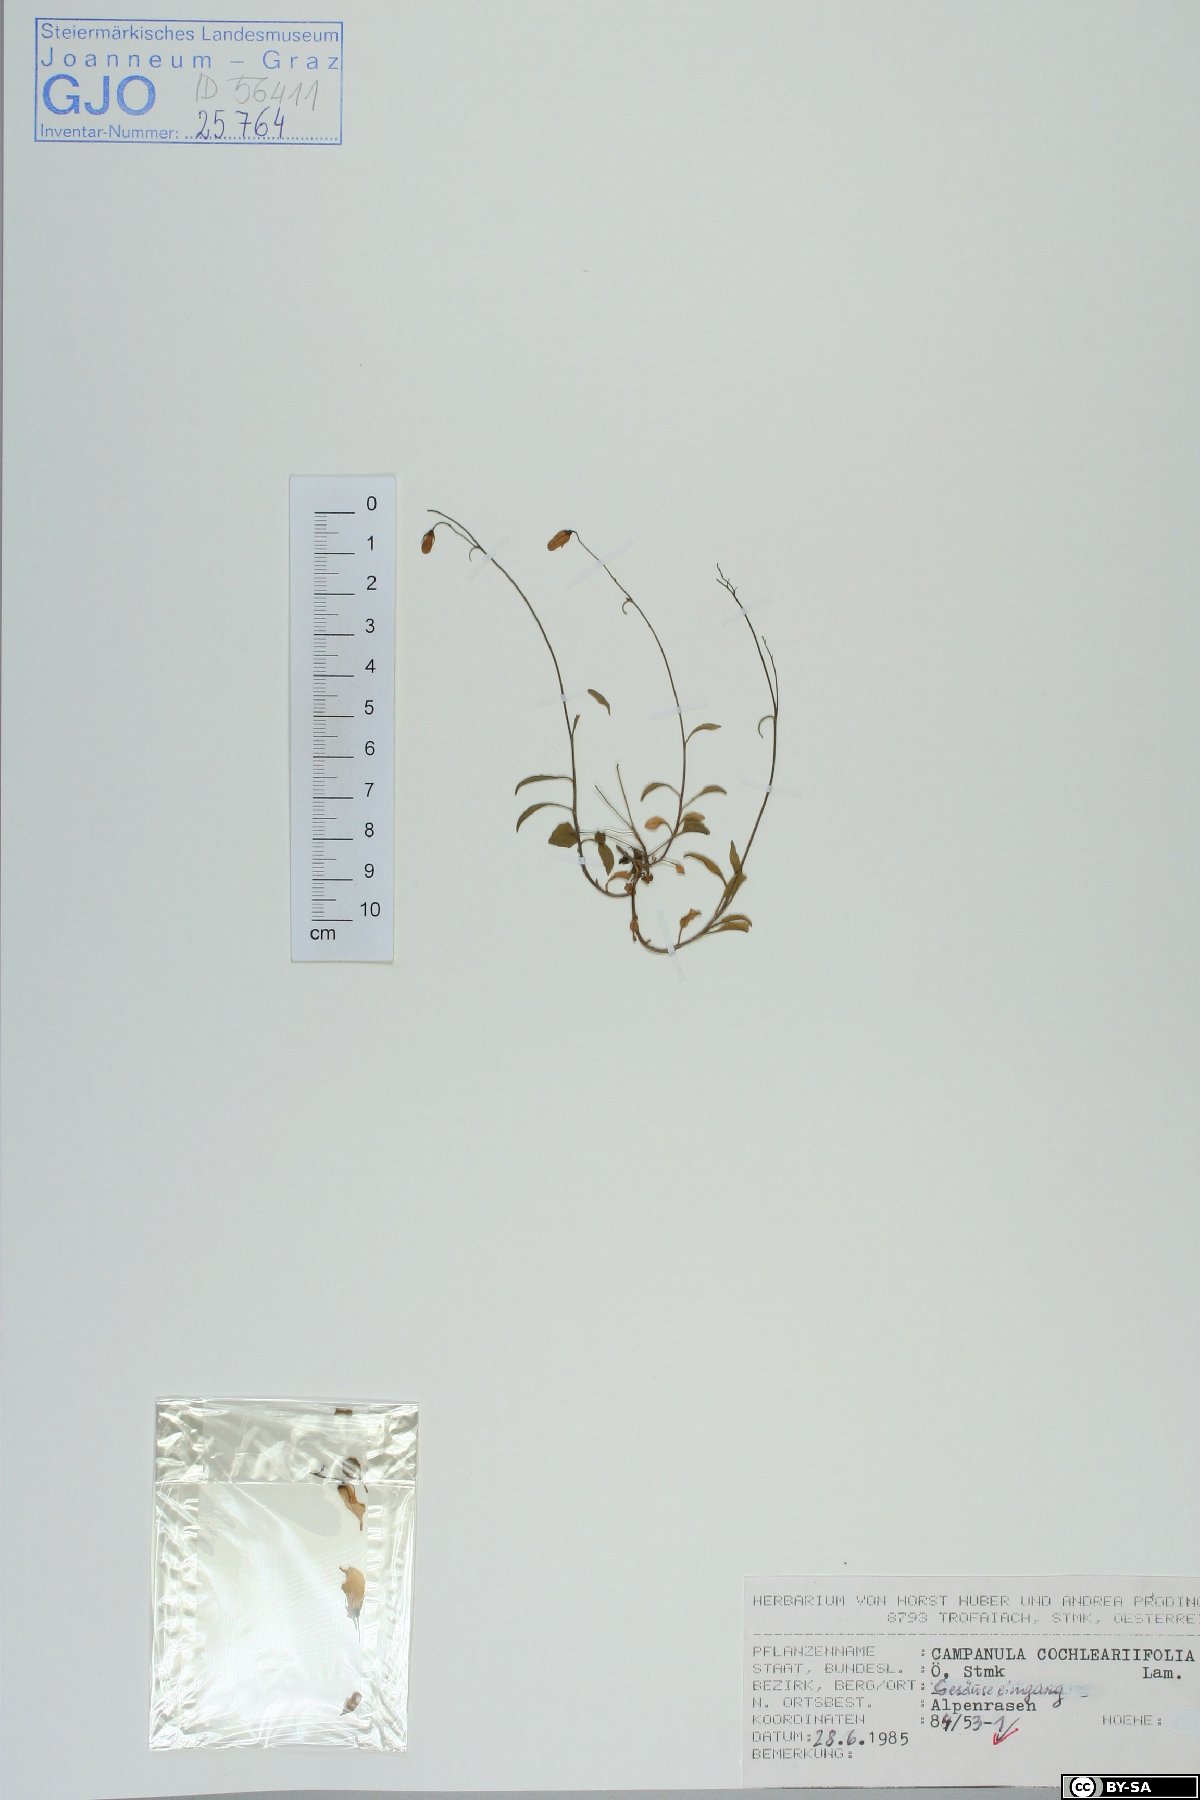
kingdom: Plantae
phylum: Tracheophyta
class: Magnoliopsida
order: Asterales
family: Campanulaceae
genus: Campanula
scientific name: Campanula cochleariifolia
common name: Fairies'-thimbles
